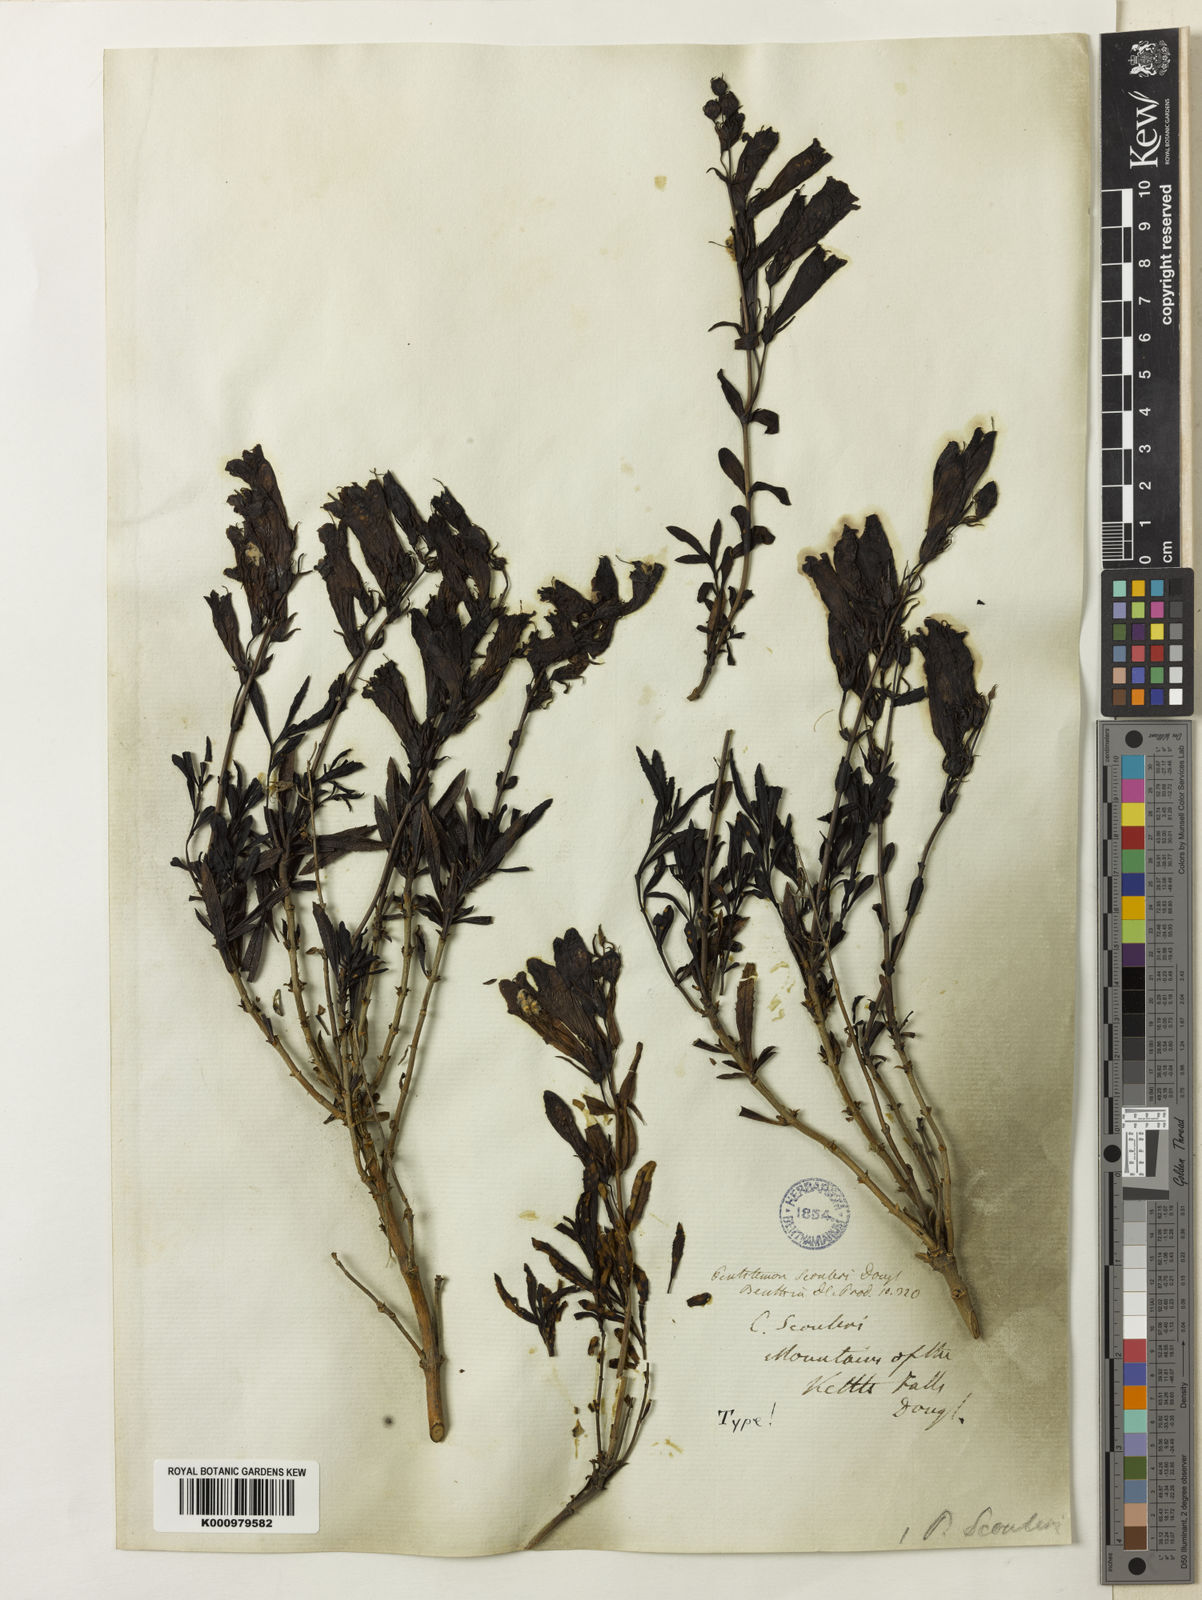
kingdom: Plantae
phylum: Tracheophyta
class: Magnoliopsida
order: Lamiales
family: Plantaginaceae
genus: Penstemon
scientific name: Penstemon
